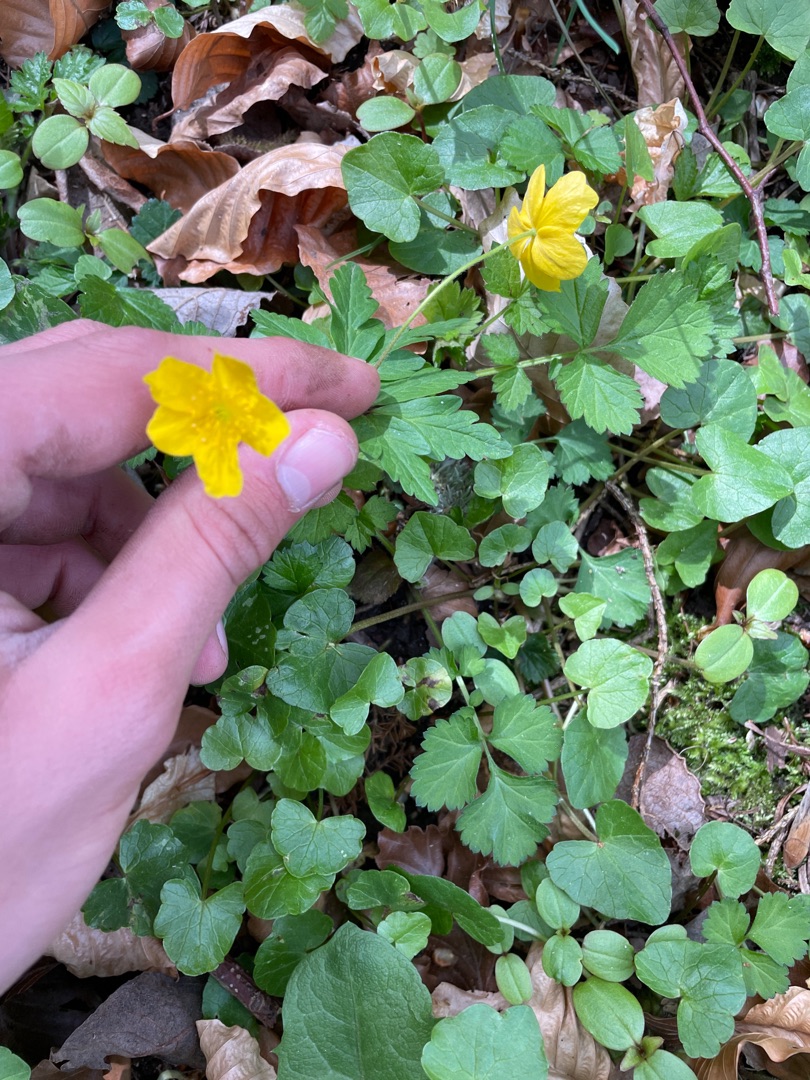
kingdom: Plantae
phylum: Tracheophyta
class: Magnoliopsida
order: Ranunculales
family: Ranunculaceae
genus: Anemone
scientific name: Anemone ranunculoides
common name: Gul anemone
